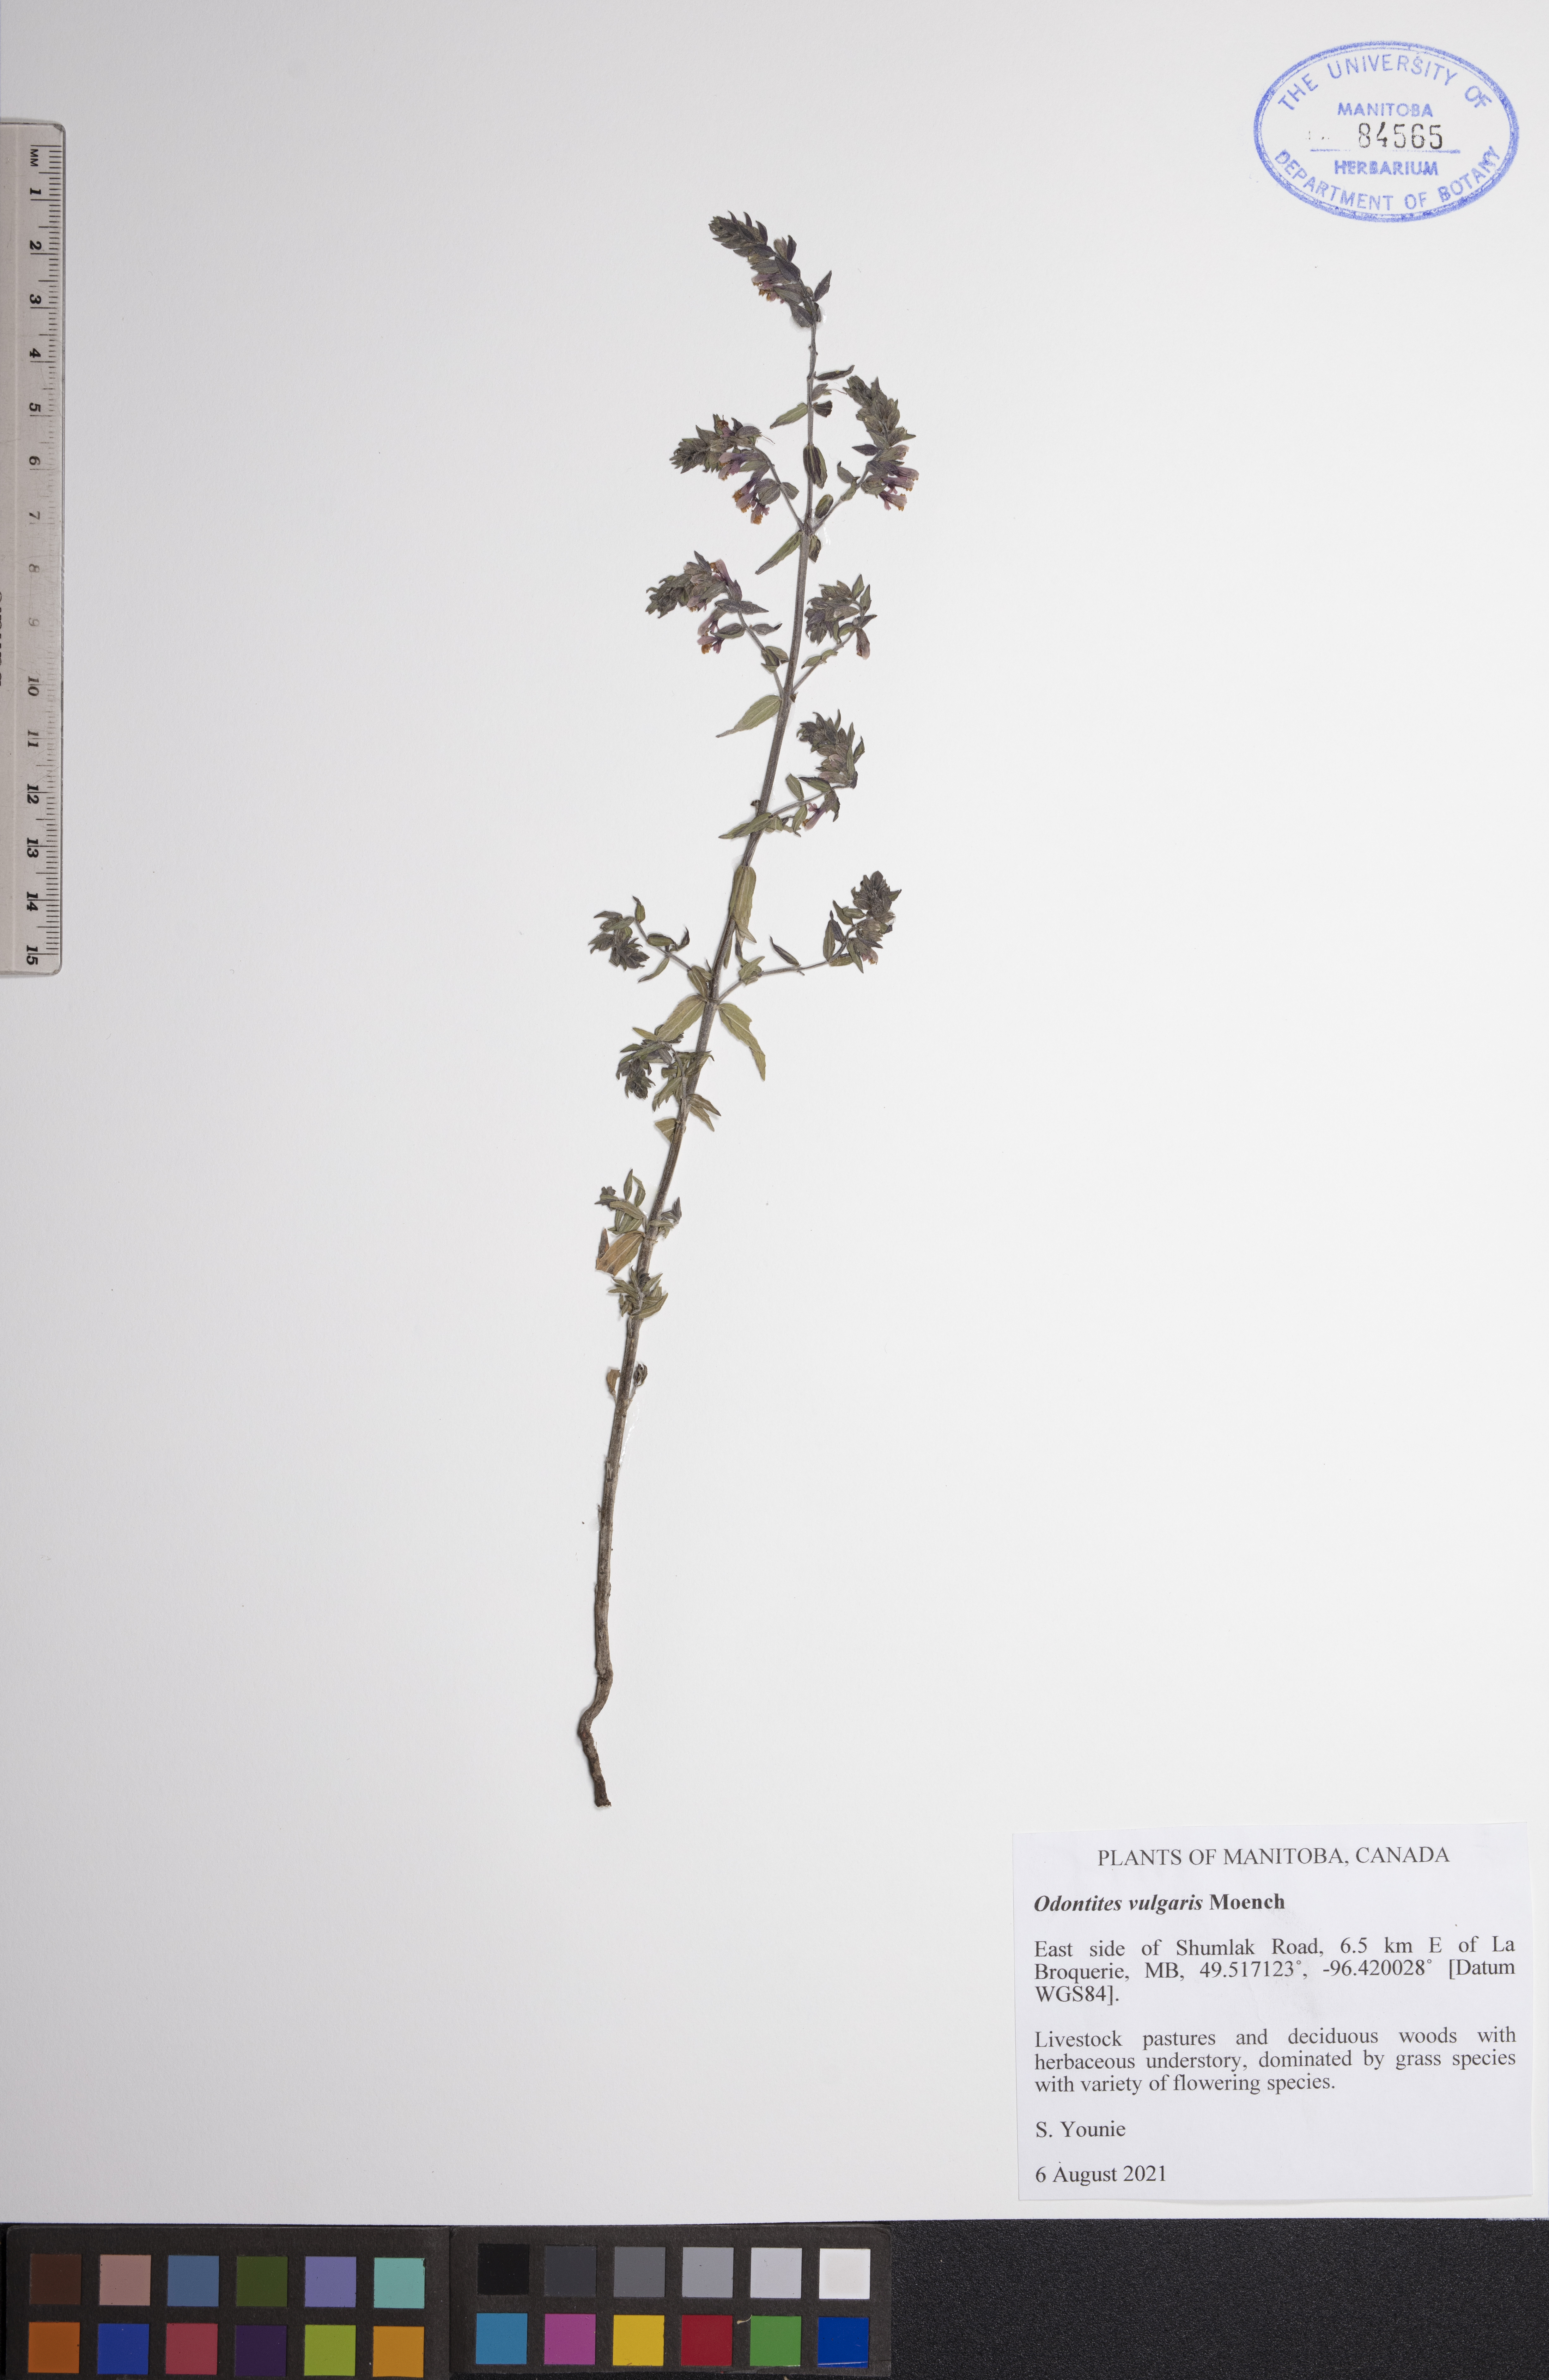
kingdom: Plantae
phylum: Tracheophyta
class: Magnoliopsida
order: Lamiales
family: Orobanchaceae
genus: Odontites
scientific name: Odontites vulgaris
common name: Broomrape
